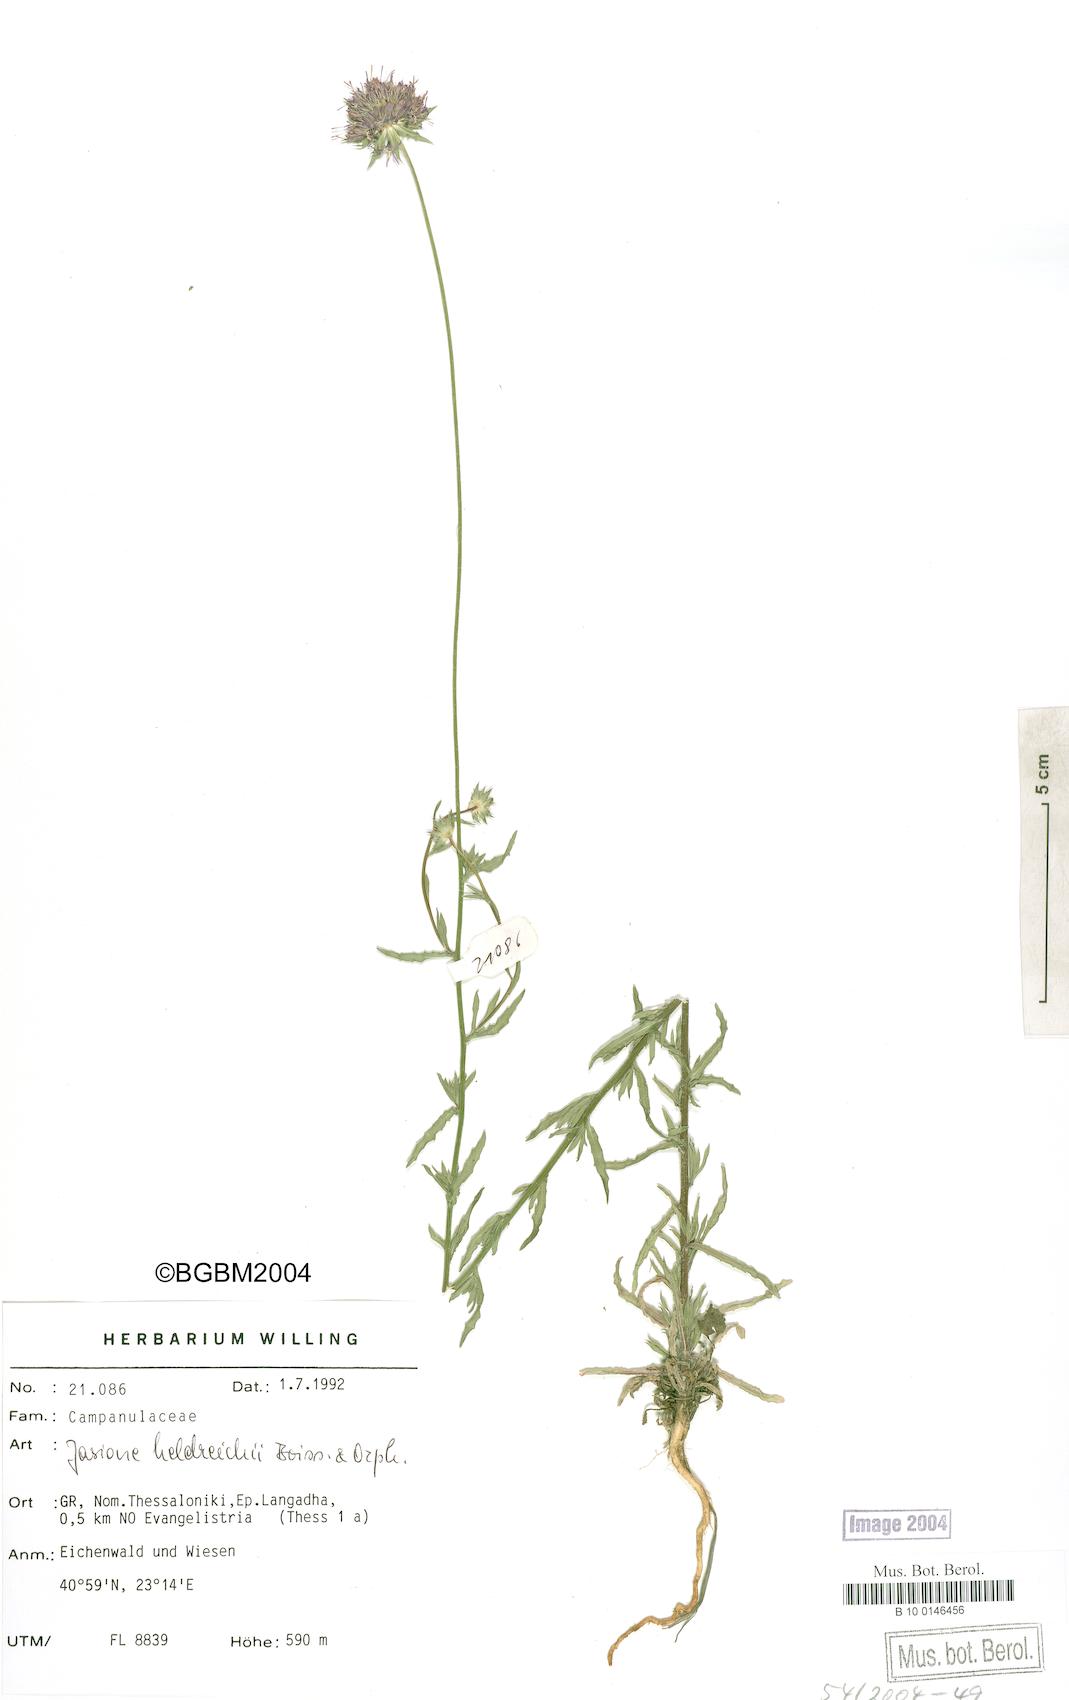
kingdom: Plantae
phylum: Tracheophyta
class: Magnoliopsida
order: Asterales
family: Campanulaceae
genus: Jasione
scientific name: Jasione heldreichii
